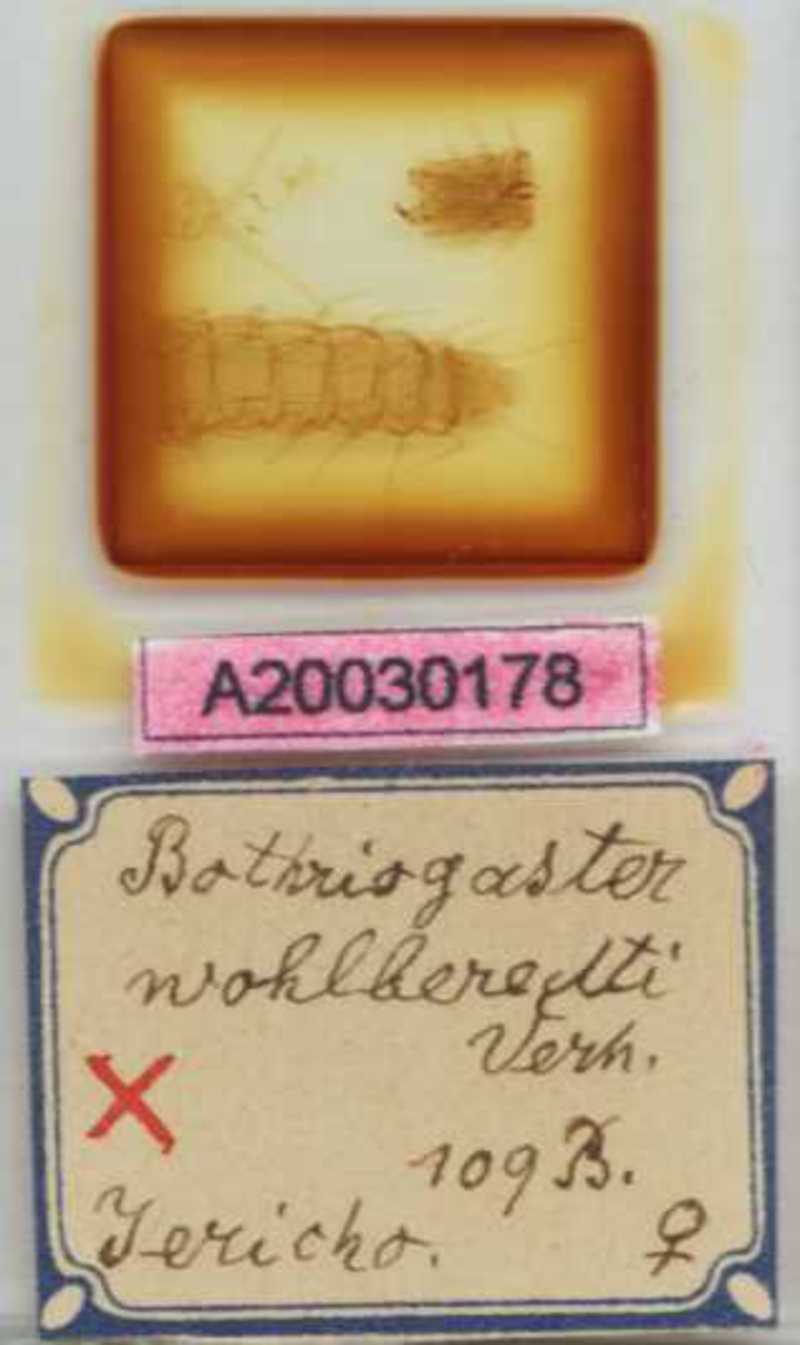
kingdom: Animalia
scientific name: Animalia
